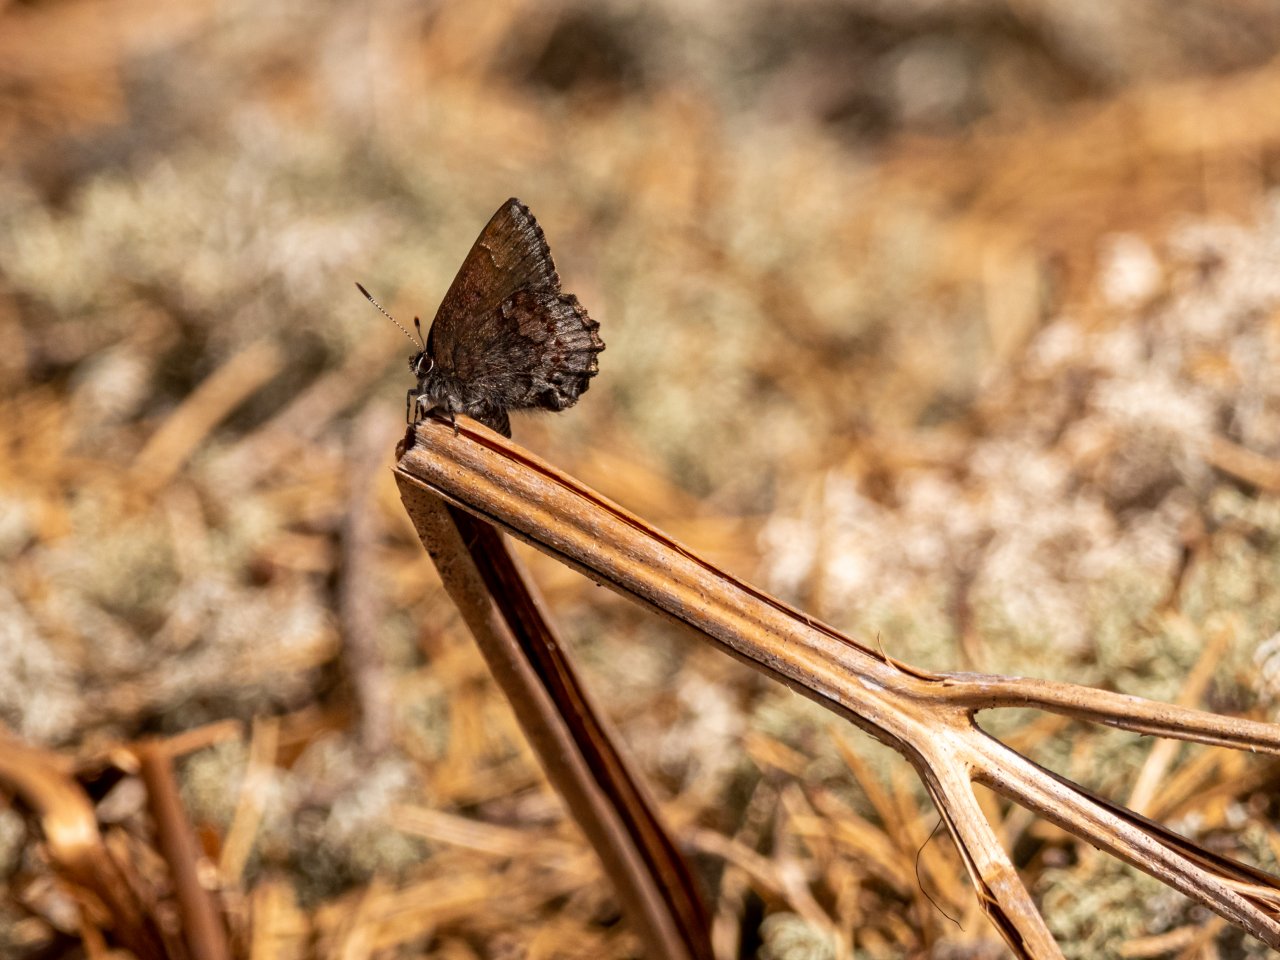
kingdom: Animalia
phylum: Arthropoda
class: Insecta
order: Lepidoptera
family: Lycaenidae
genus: Callophrys
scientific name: Callophrys polios
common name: Hoary Elfin
